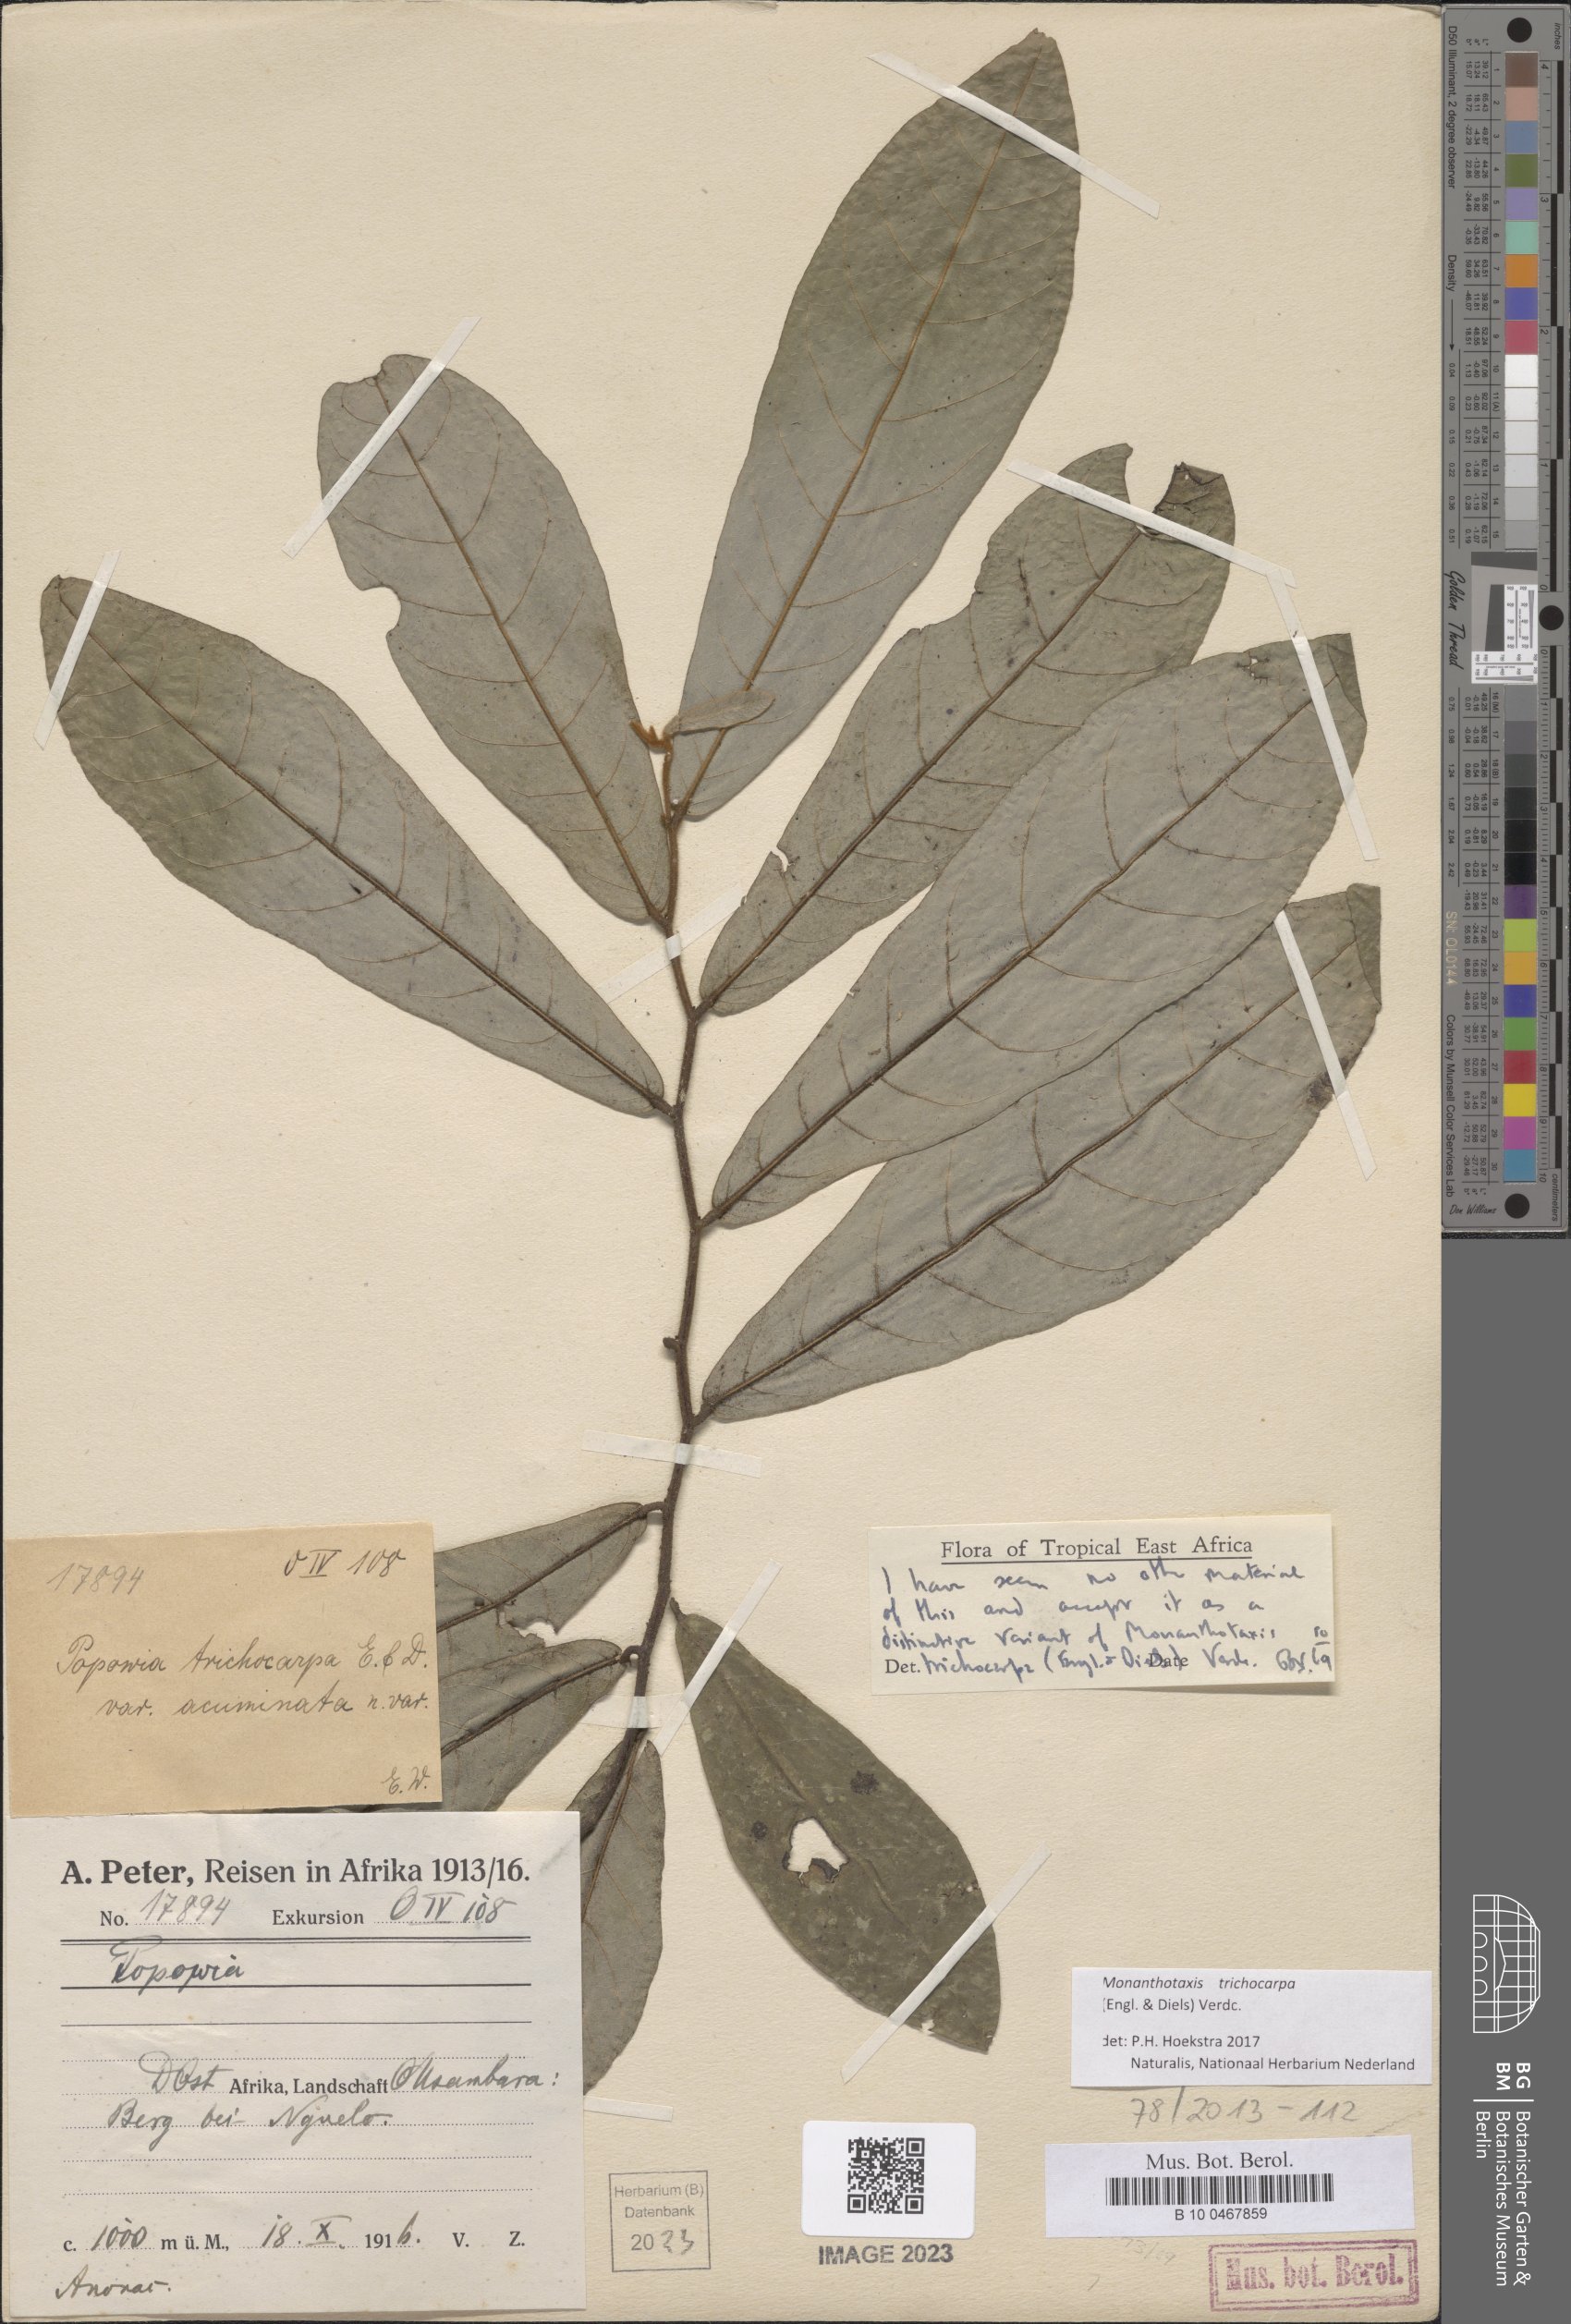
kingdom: Plantae
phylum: Tracheophyta
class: Magnoliopsida
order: Magnoliales
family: Annonaceae
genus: Monanthotaxis
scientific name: Monanthotaxis trichocarpa
